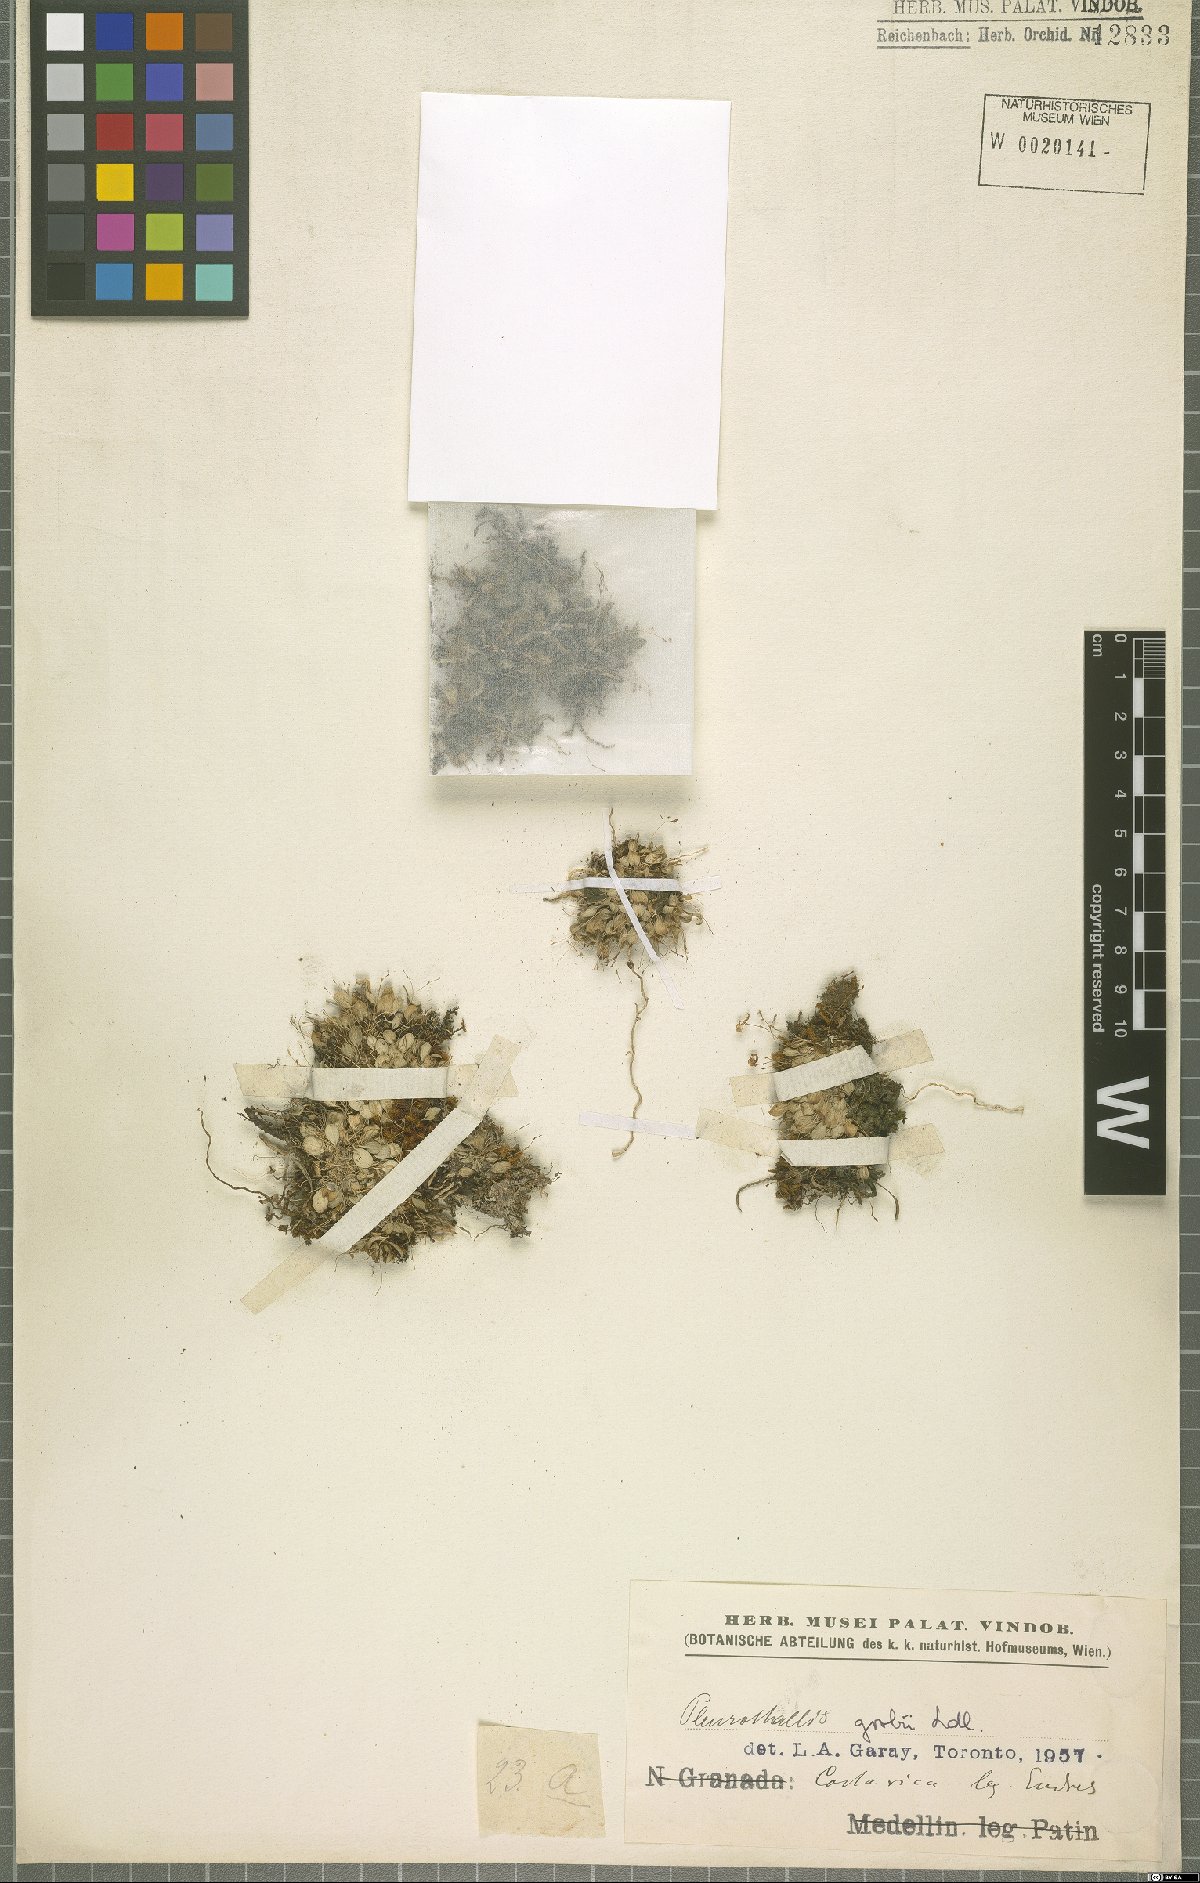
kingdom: Plantae
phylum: Tracheophyta
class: Liliopsida
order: Asparagales
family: Orchidaceae
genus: Specklinia
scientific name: Specklinia colombiana
